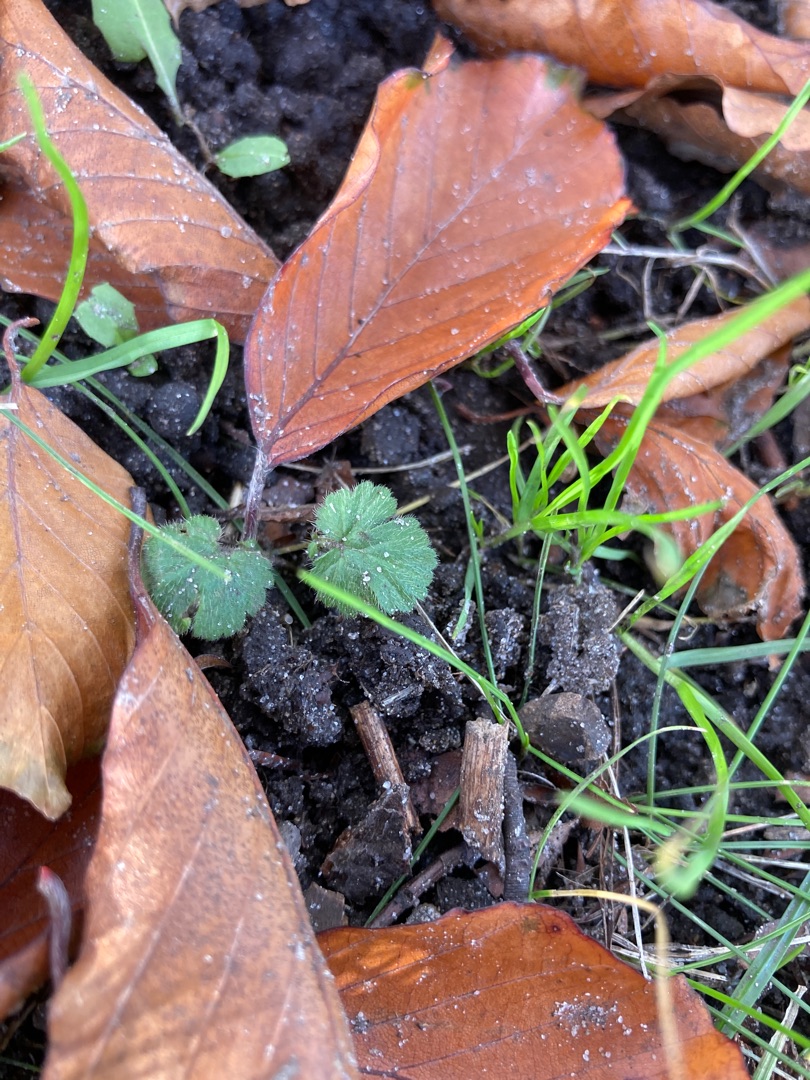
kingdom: Plantae
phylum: Tracheophyta
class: Magnoliopsida
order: Rosales
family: Rosaceae
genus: Geum
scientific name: Geum urbanum
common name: Feber-nellikerod
